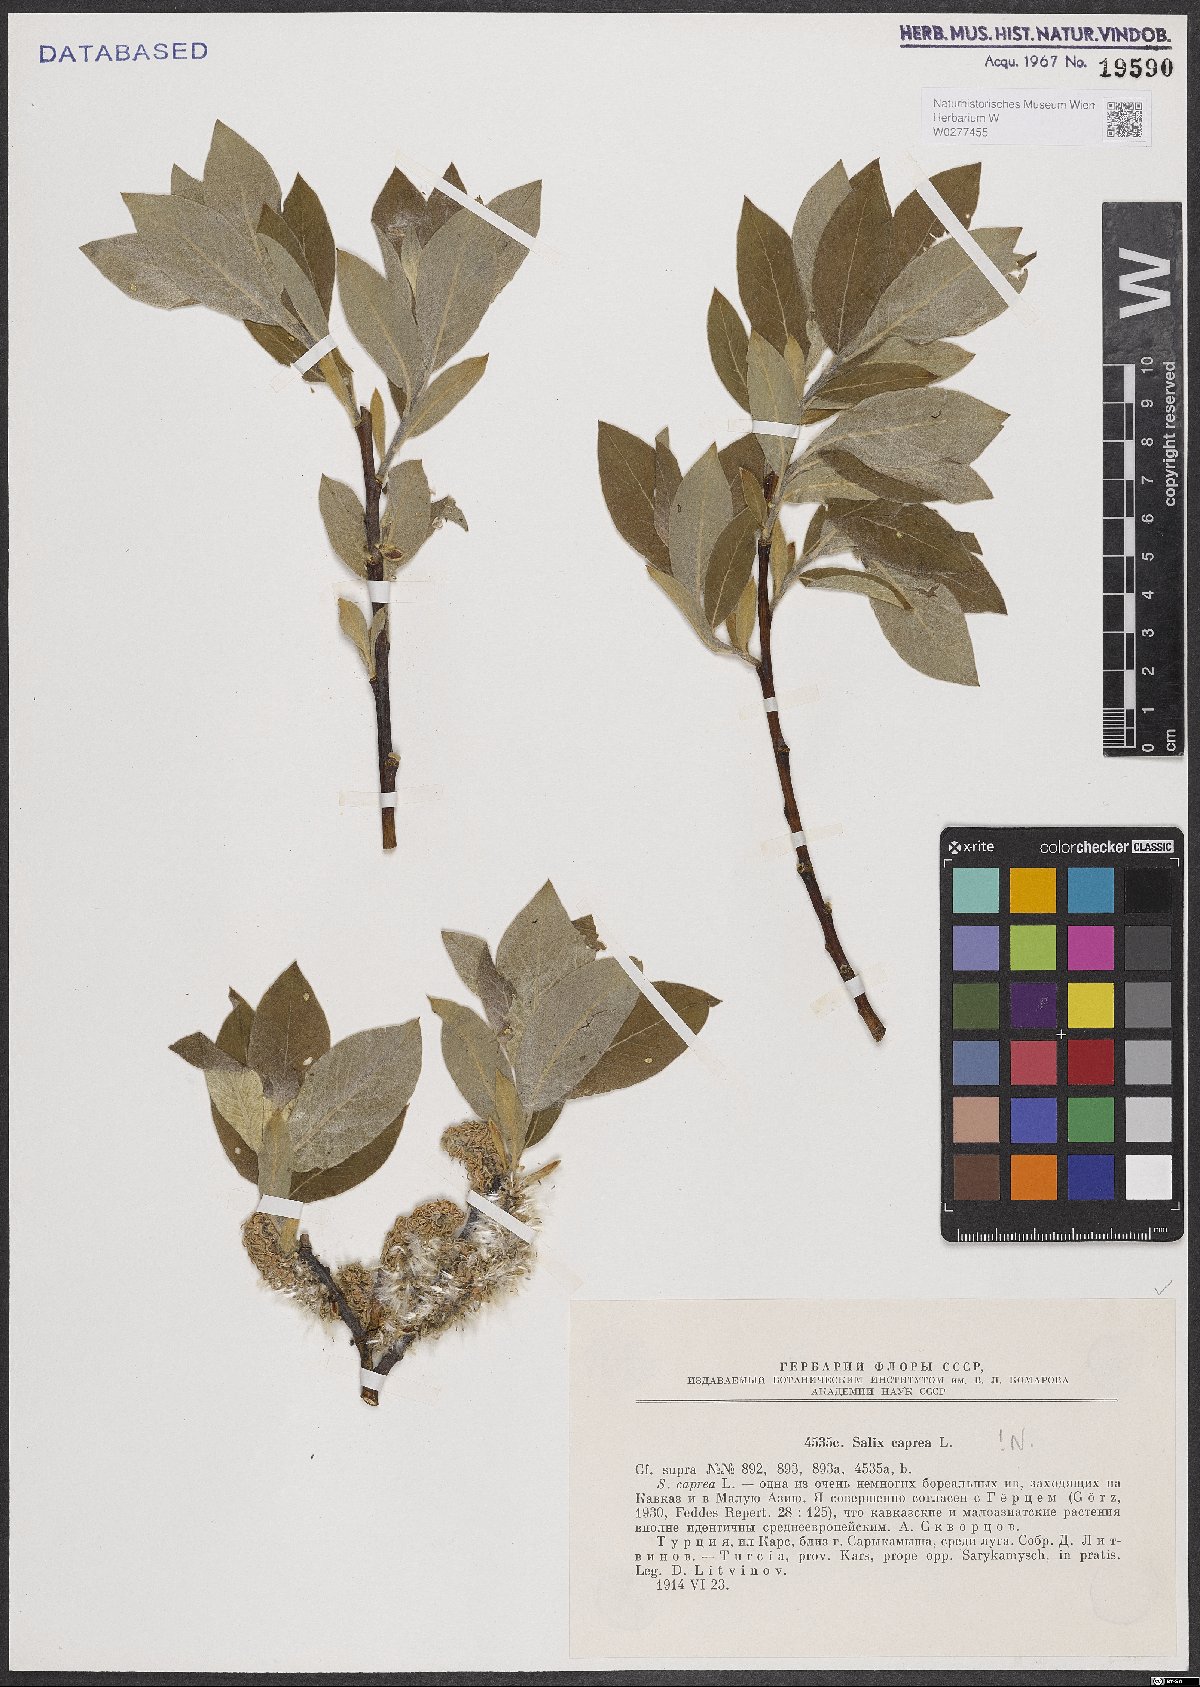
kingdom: Plantae
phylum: Tracheophyta
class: Magnoliopsida
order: Malpighiales
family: Salicaceae
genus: Salix
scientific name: Salix caprea
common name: Goat willow
